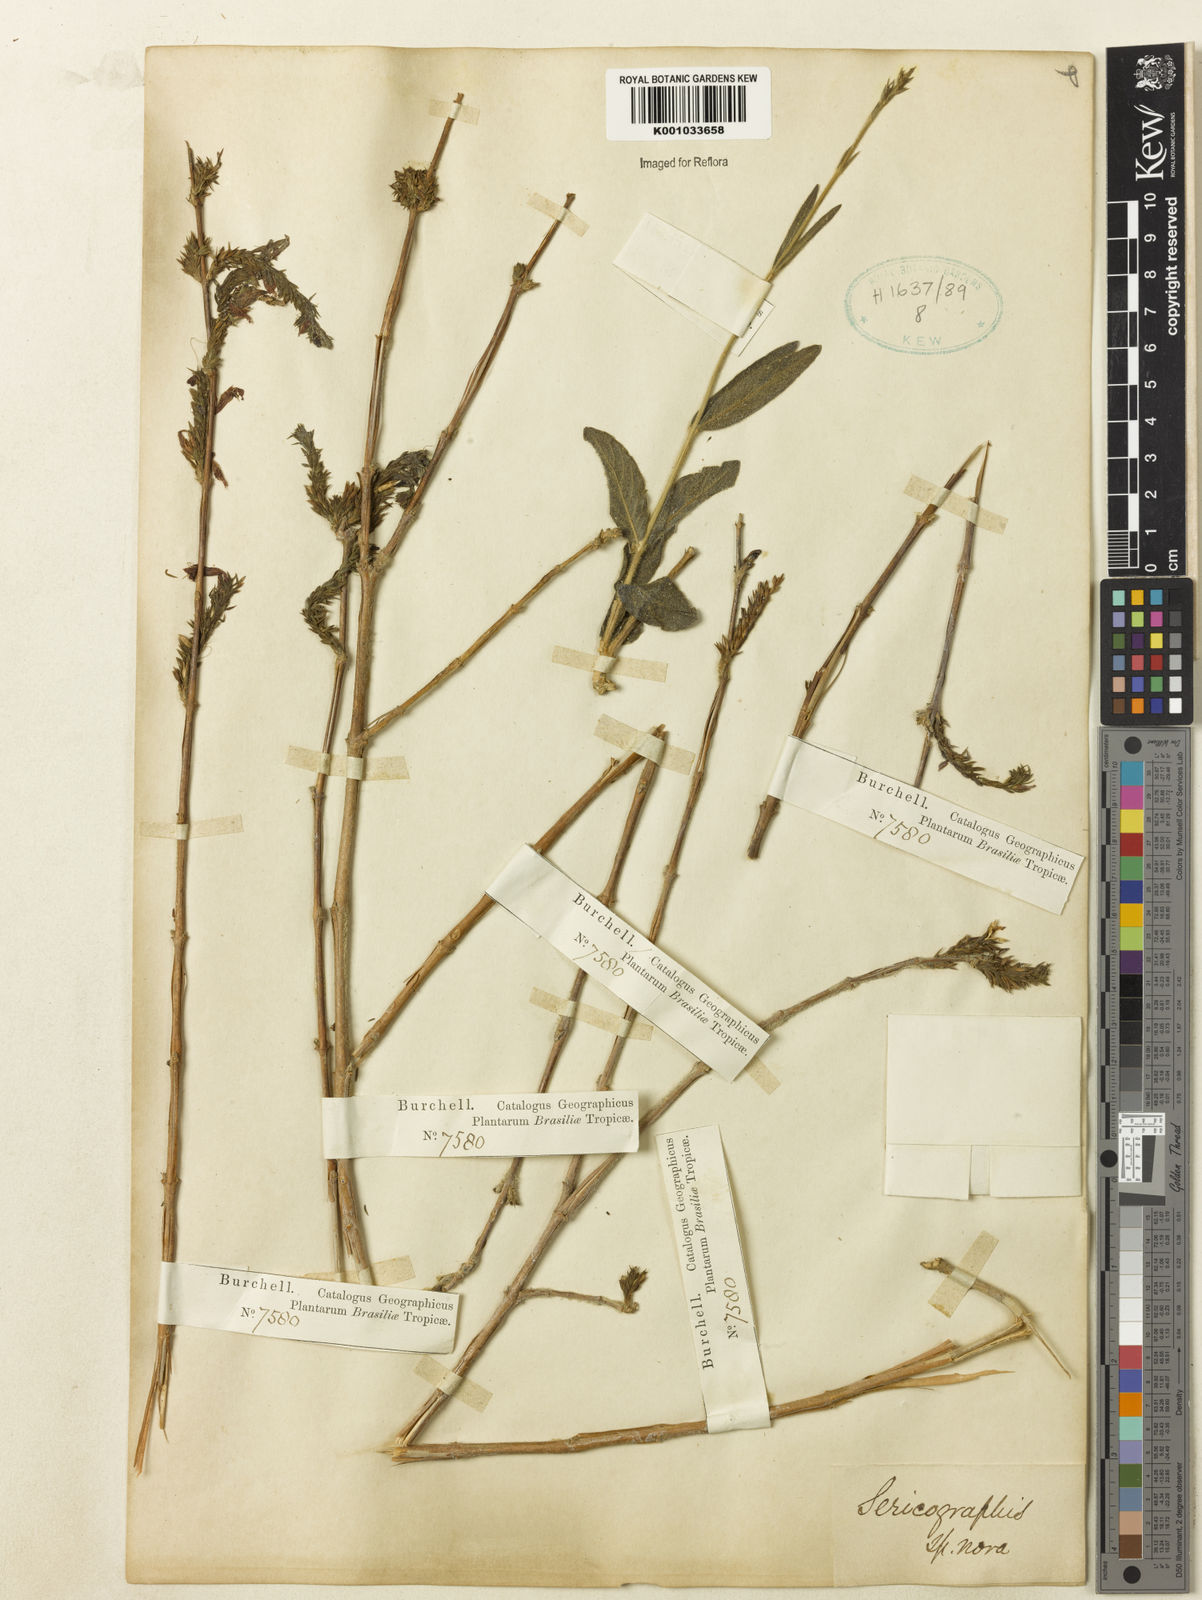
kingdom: Plantae
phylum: Tracheophyta
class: Magnoliopsida
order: Lamiales
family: Acanthaceae
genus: Justicia
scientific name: Justicia
